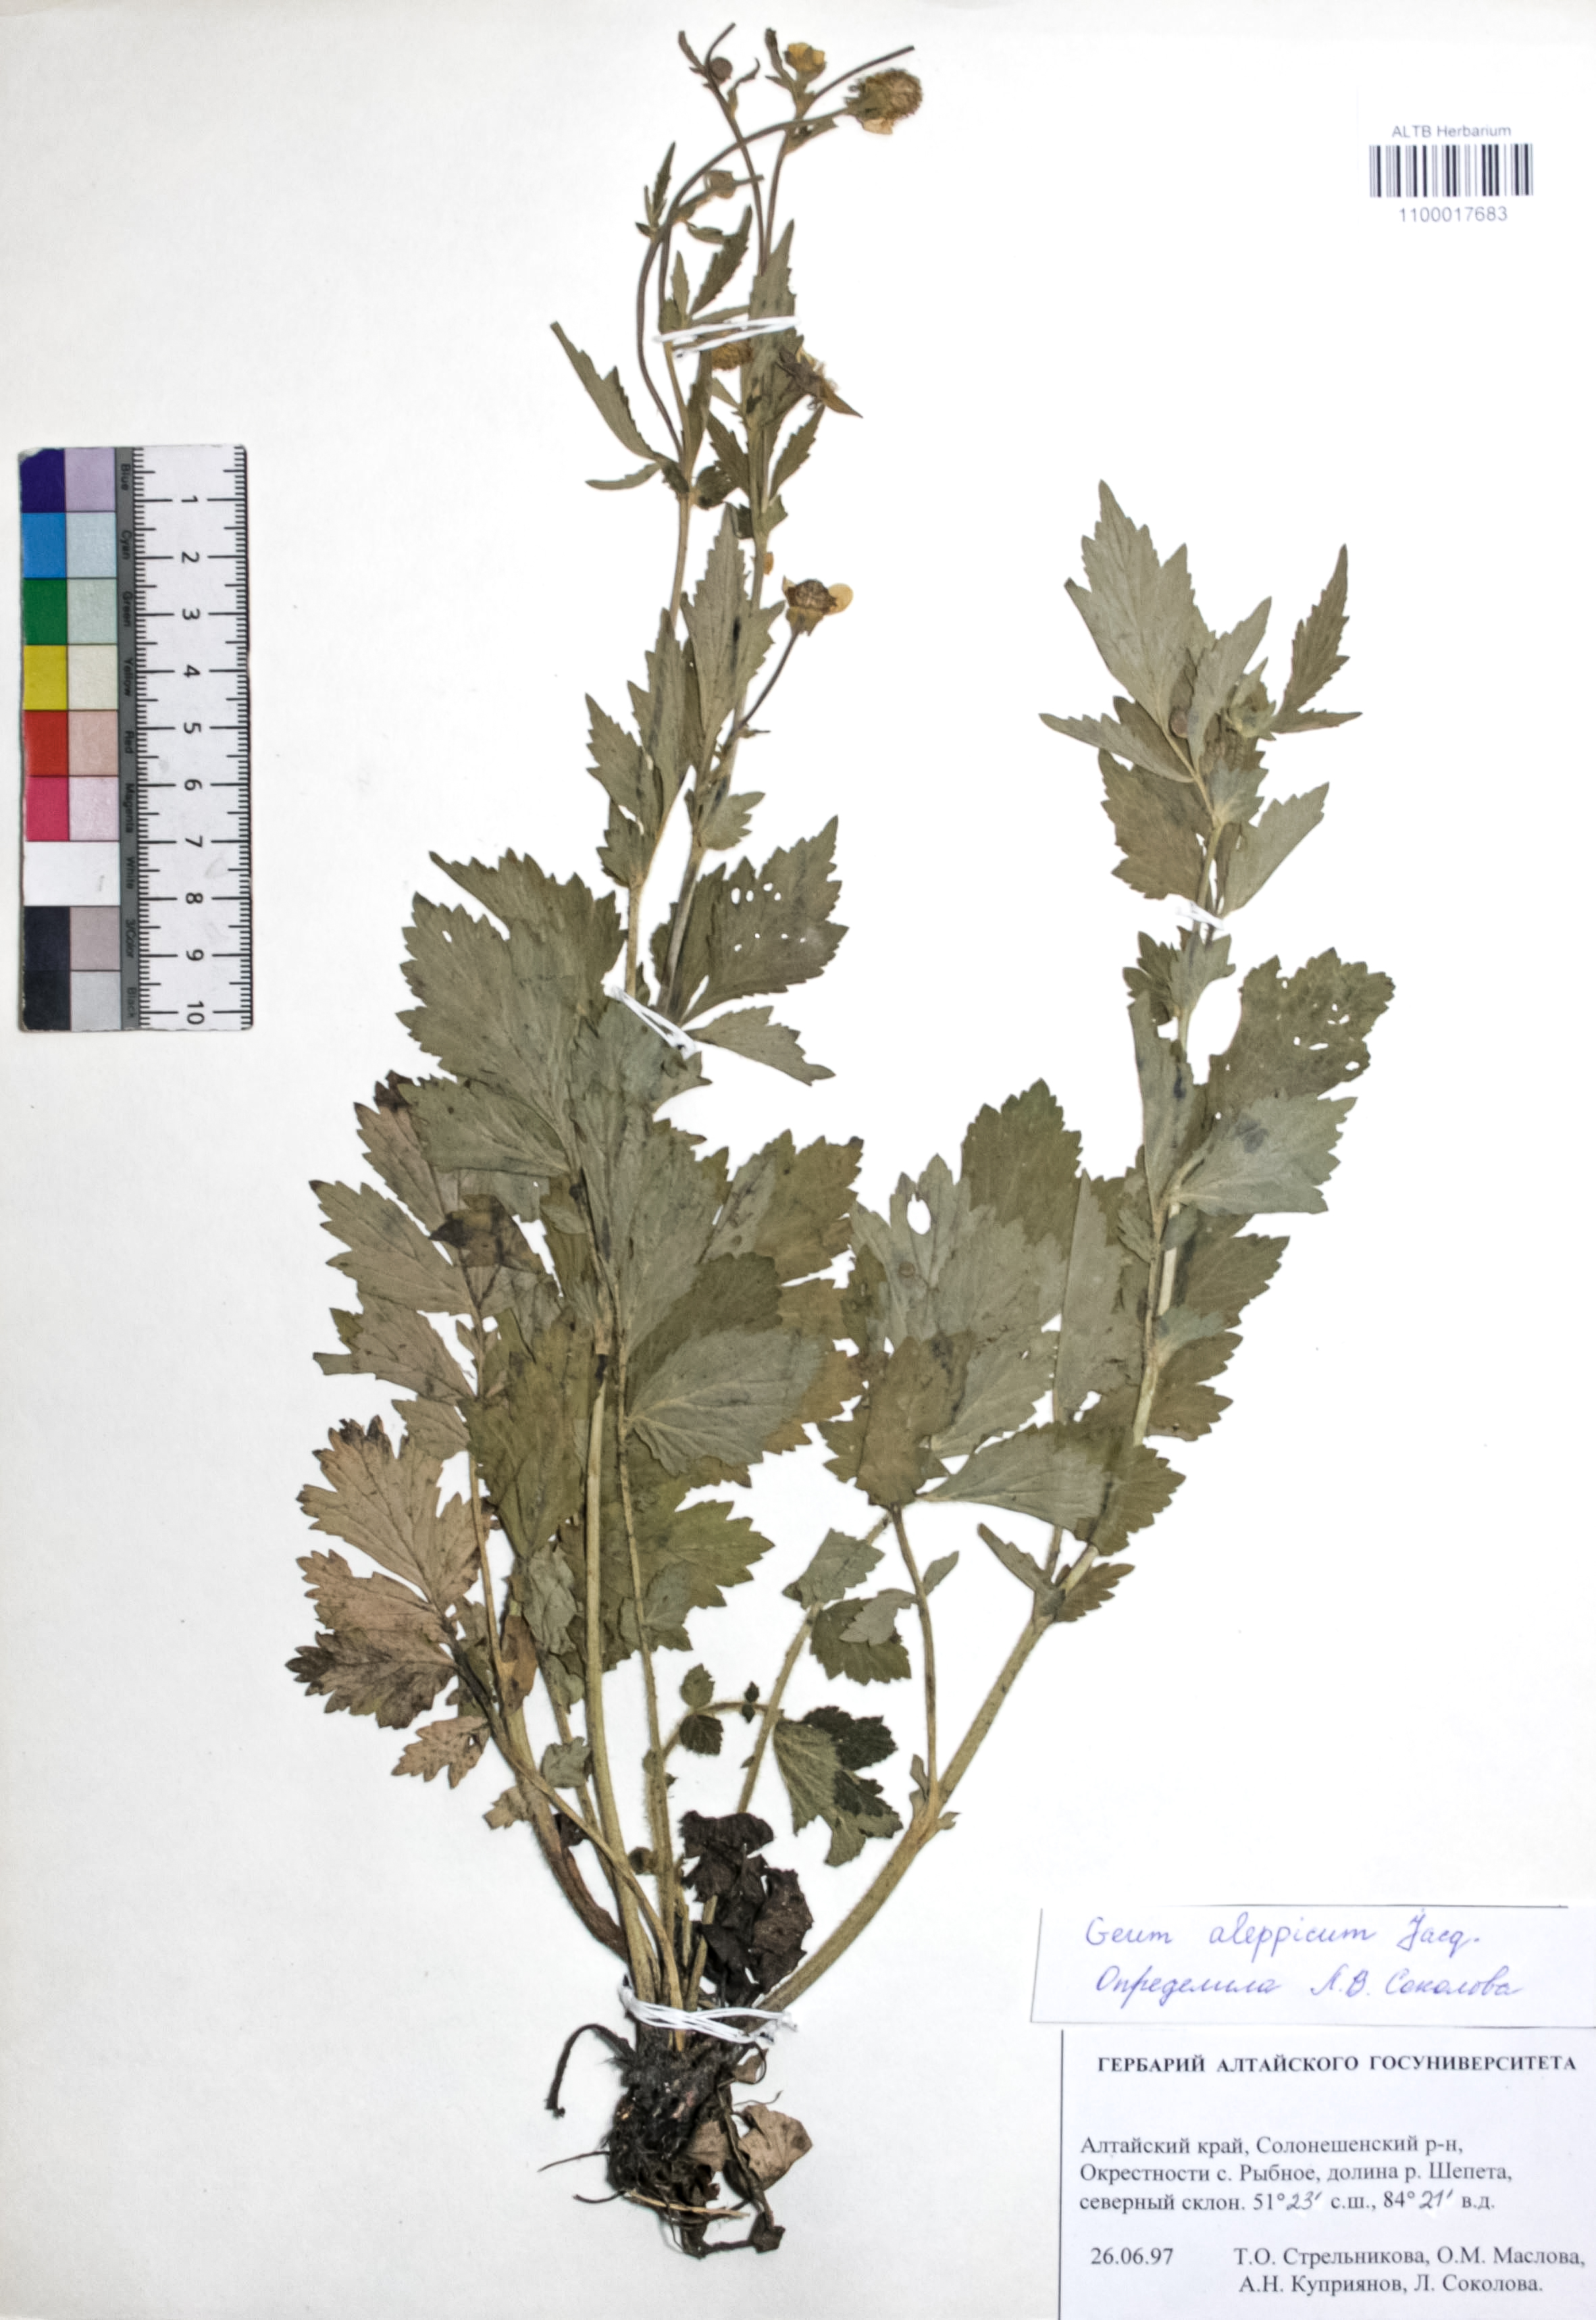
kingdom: Plantae
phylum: Tracheophyta
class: Magnoliopsida
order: Rosales
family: Rosaceae
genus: Geum
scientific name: Geum aleppicum
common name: Yellow avens
